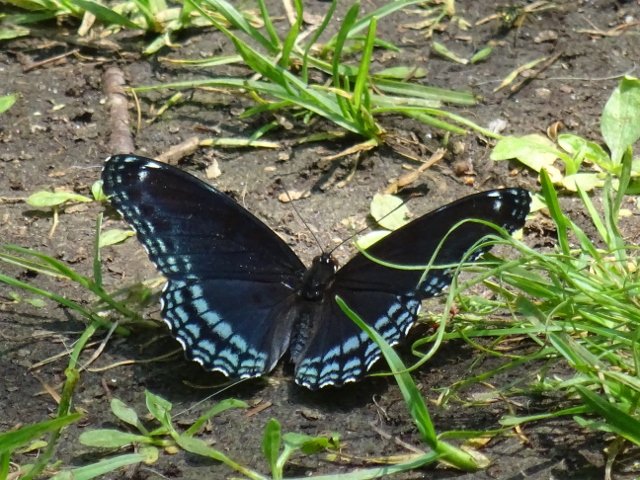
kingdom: Animalia
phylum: Arthropoda
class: Insecta
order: Lepidoptera
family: Nymphalidae
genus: Limenitis
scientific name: Limenitis astyanax
